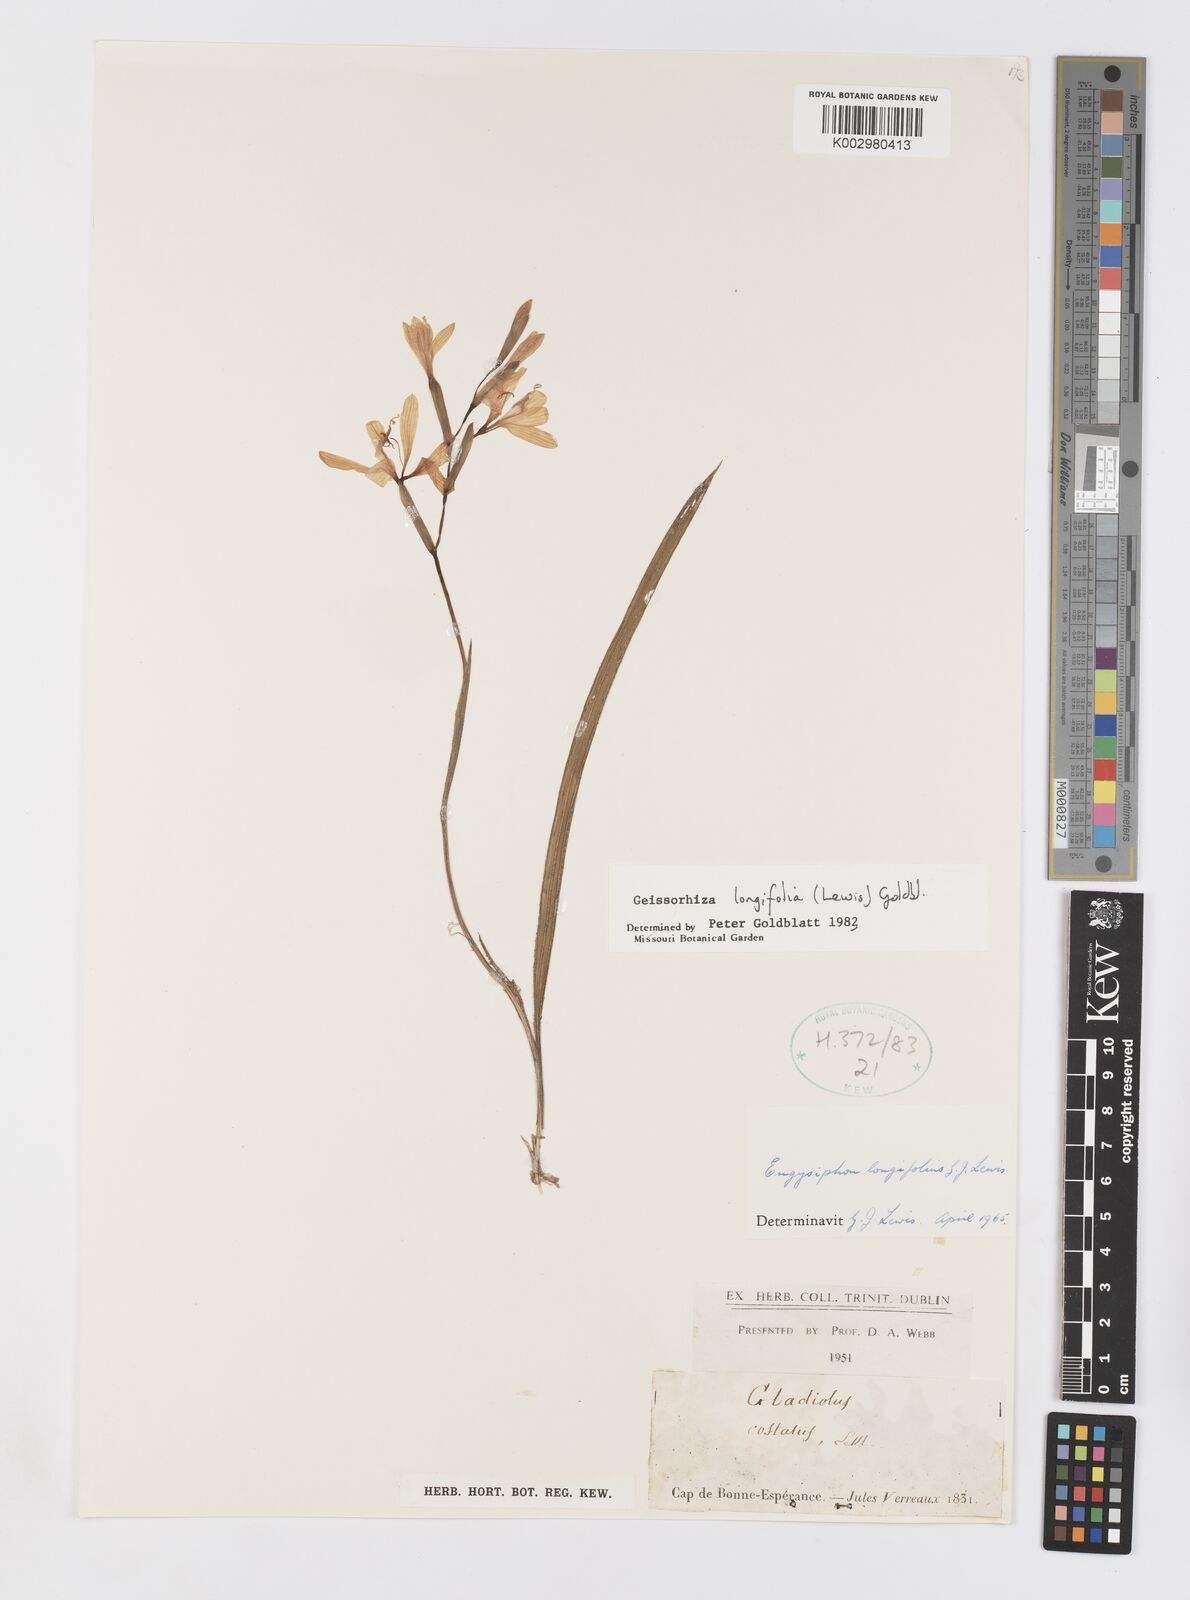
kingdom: Plantae
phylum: Tracheophyta
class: Liliopsida
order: Asparagales
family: Iridaceae
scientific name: Iridaceae
